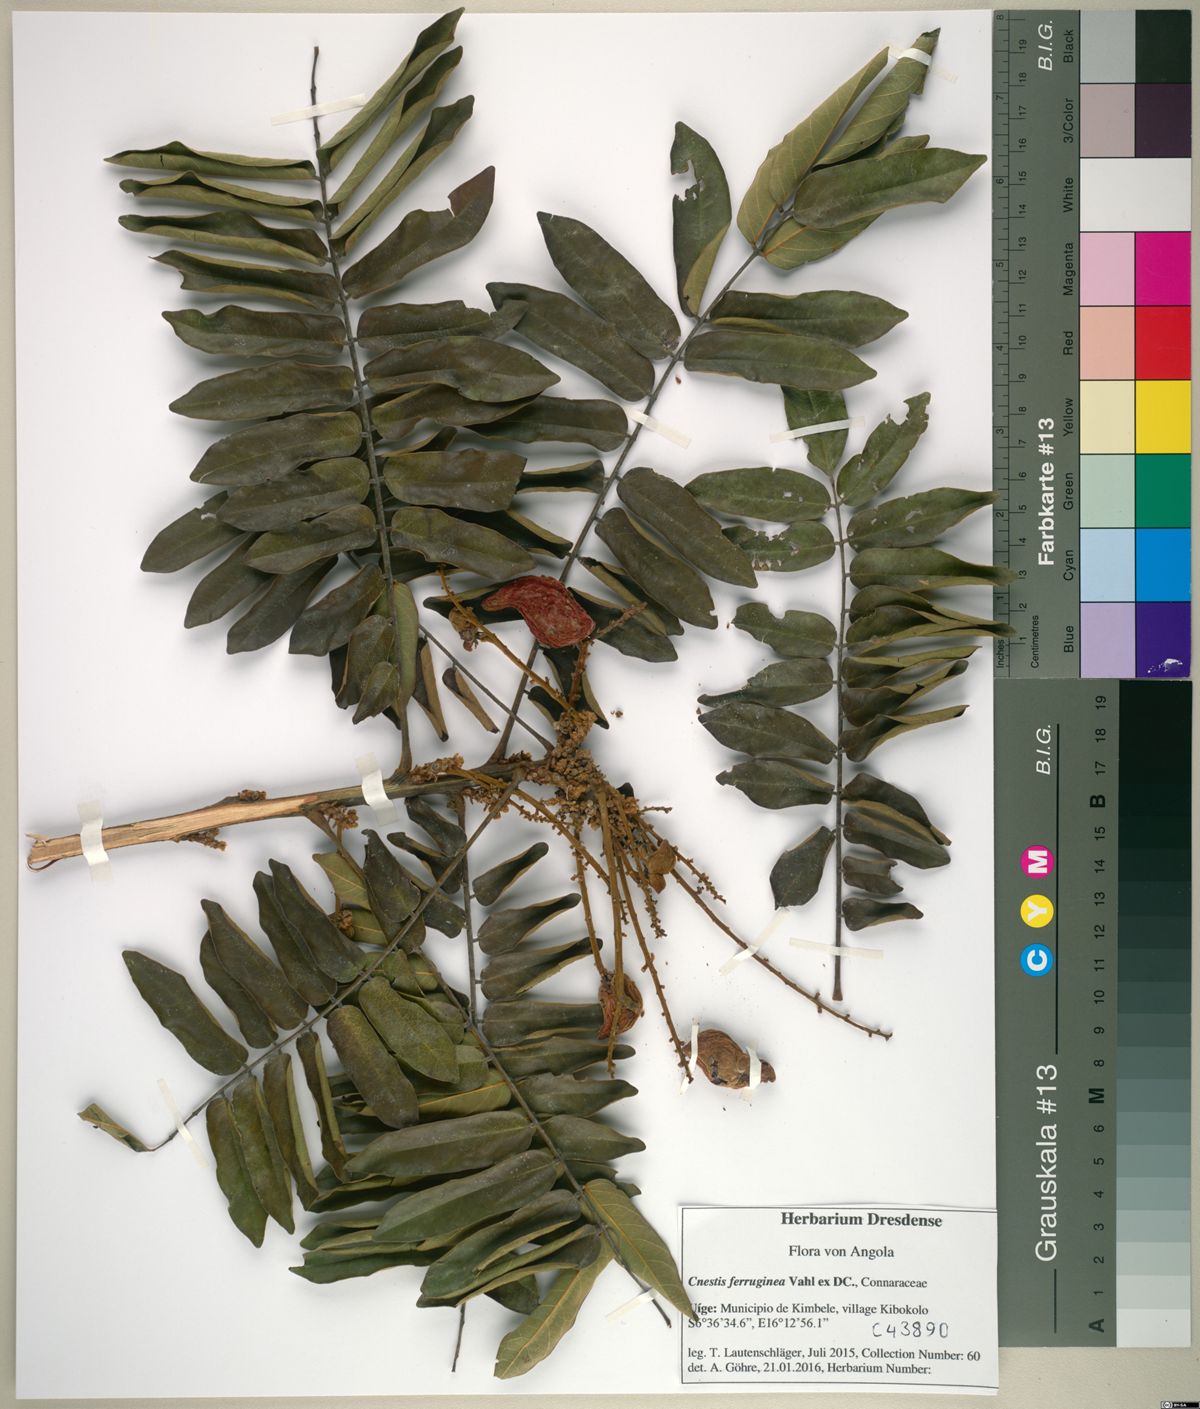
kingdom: Plantae
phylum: Tracheophyta
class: Magnoliopsida
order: Oxalidales
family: Connaraceae
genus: Cnestis
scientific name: Cnestis ferruginea
